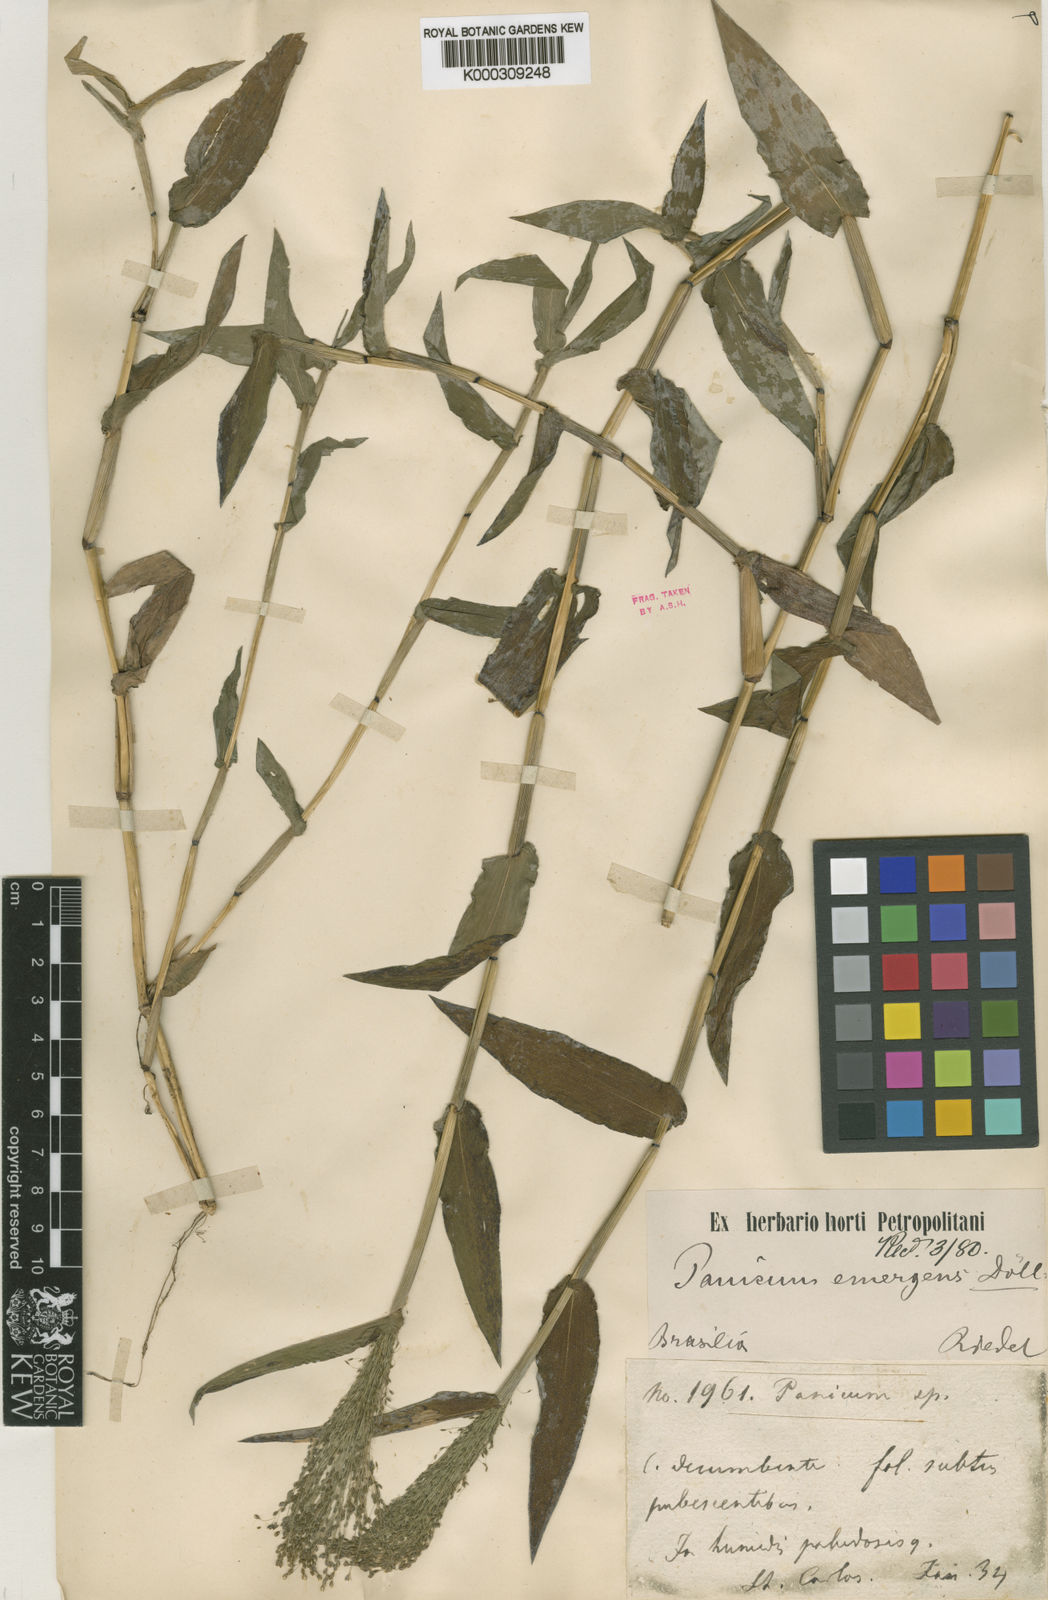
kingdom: Plantae
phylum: Tracheophyta
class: Liliopsida
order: Poales
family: Poaceae
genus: Trichanthecium
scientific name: Trichanthecium schwackeanum
